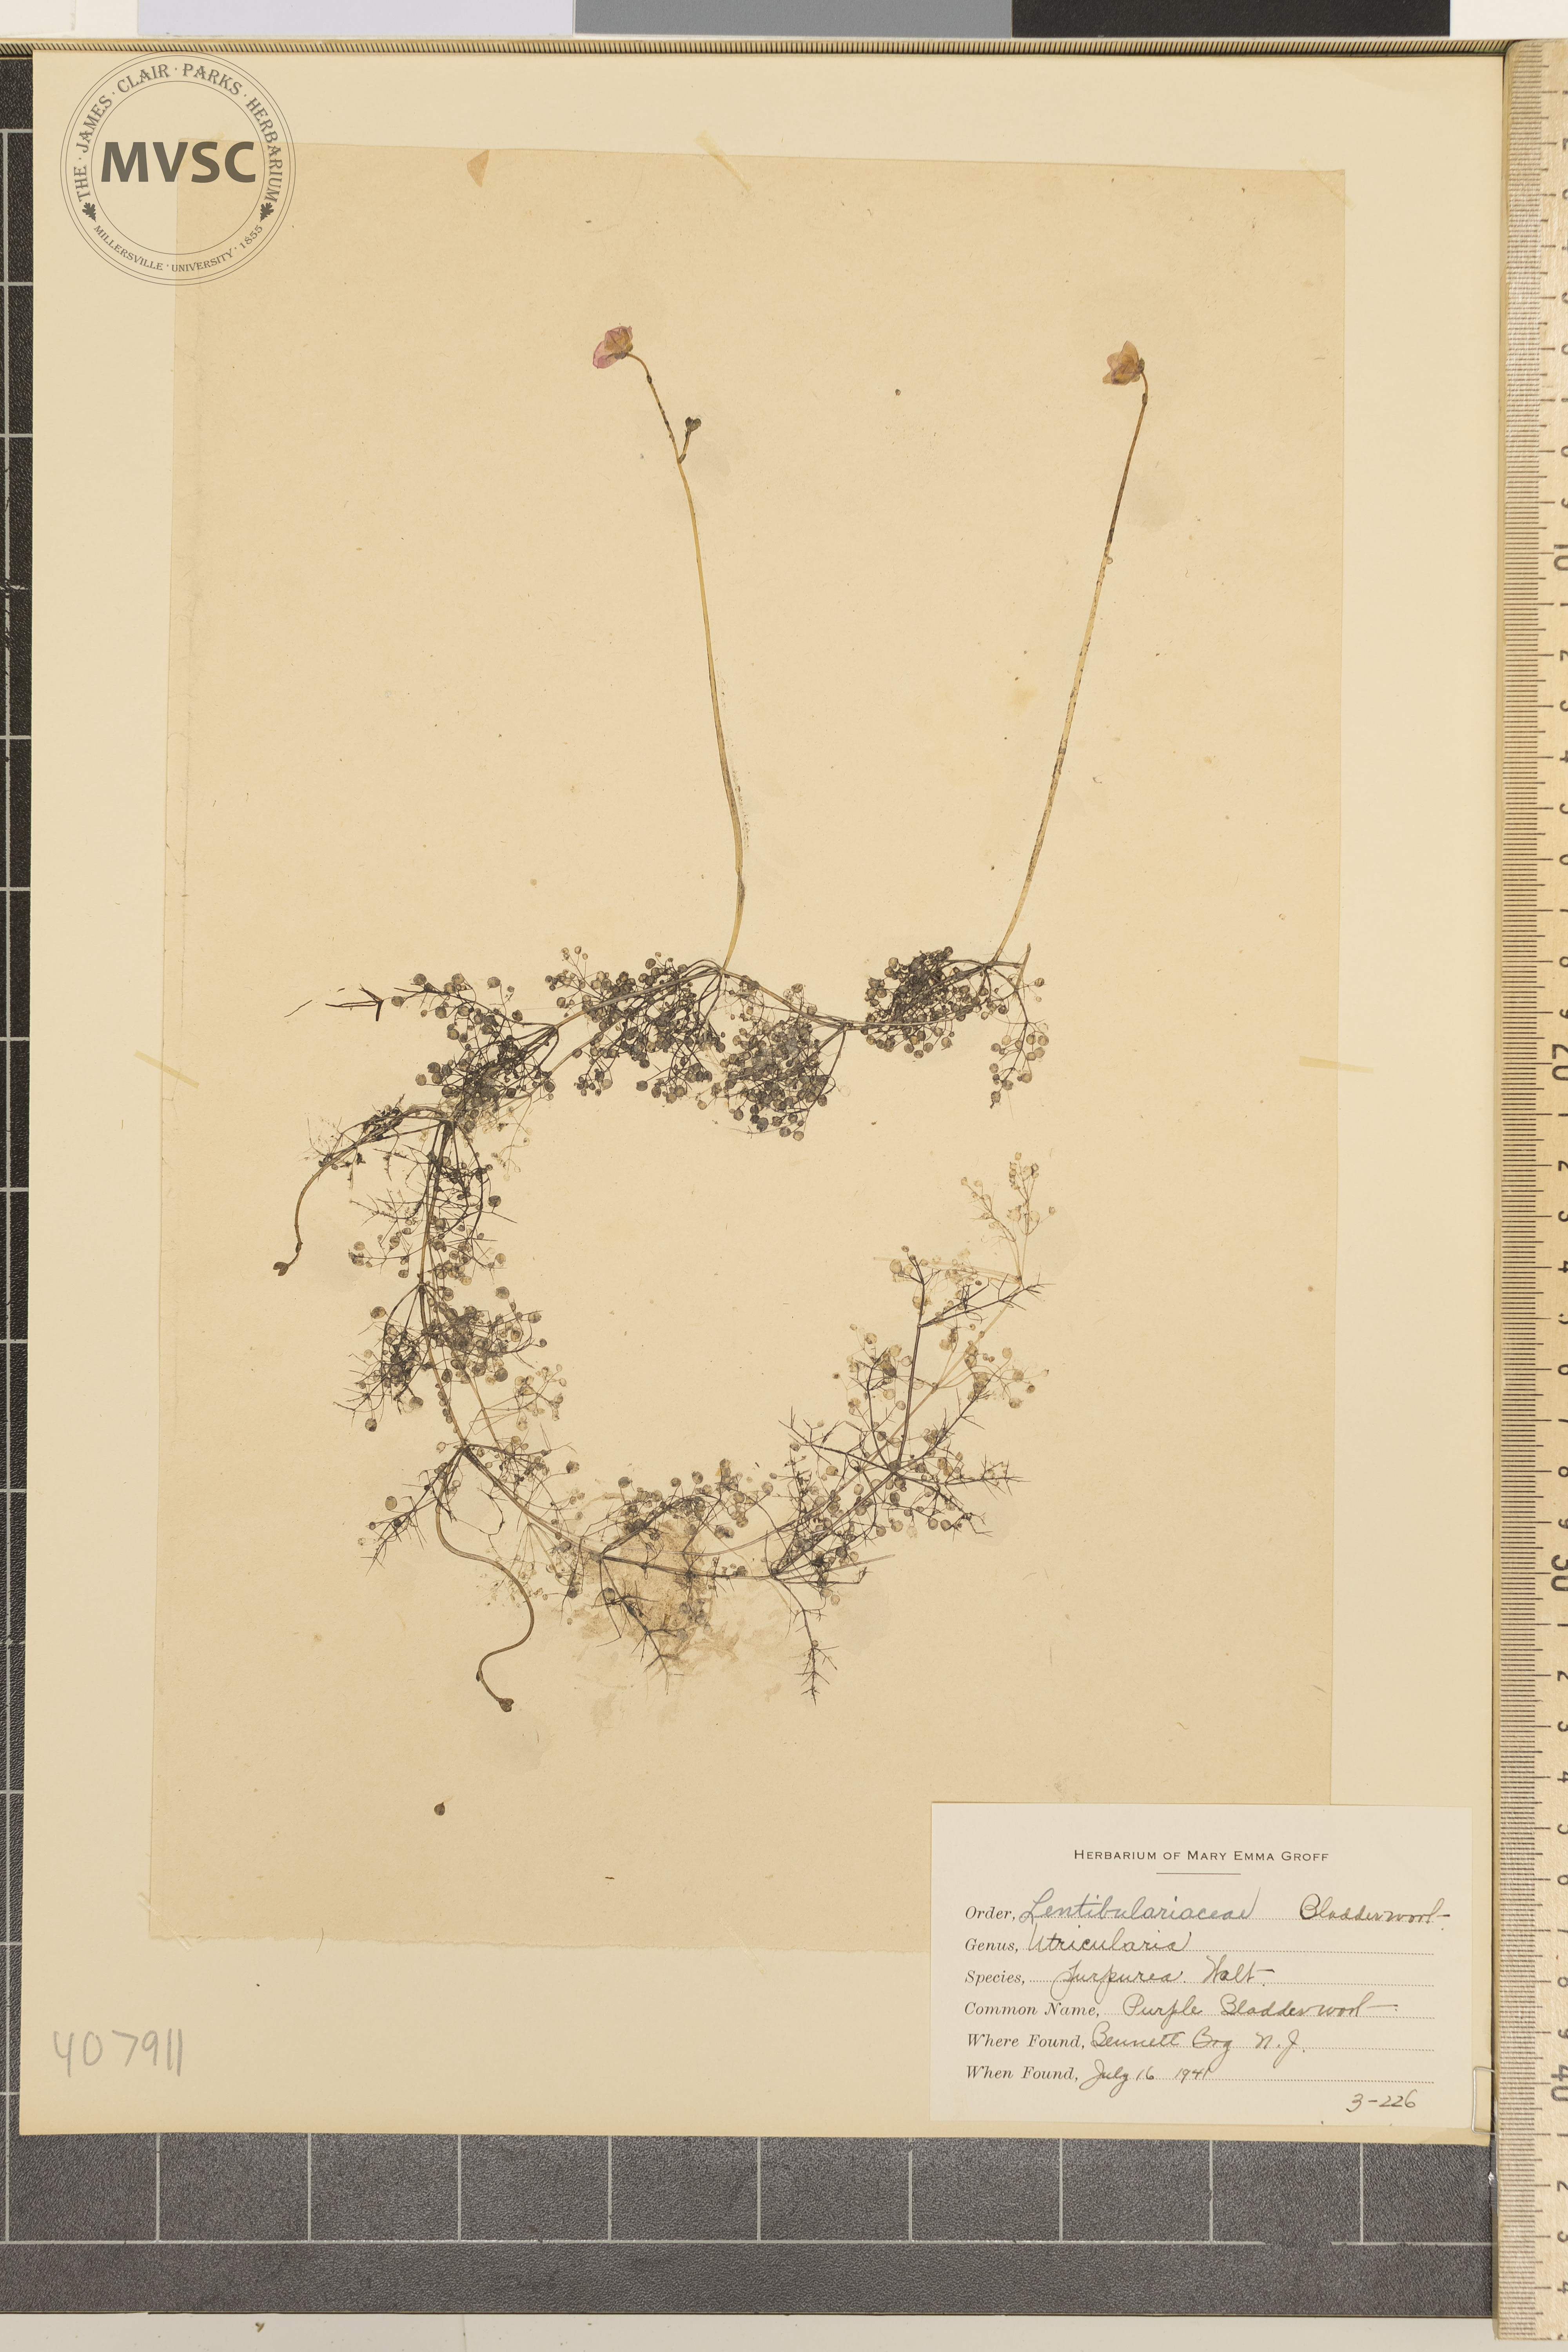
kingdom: Plantae
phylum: Tracheophyta
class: Magnoliopsida
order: Lamiales
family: Lentibulariaceae
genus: Utricularia
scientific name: Utricularia purpurea
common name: Purple Bladderwort
